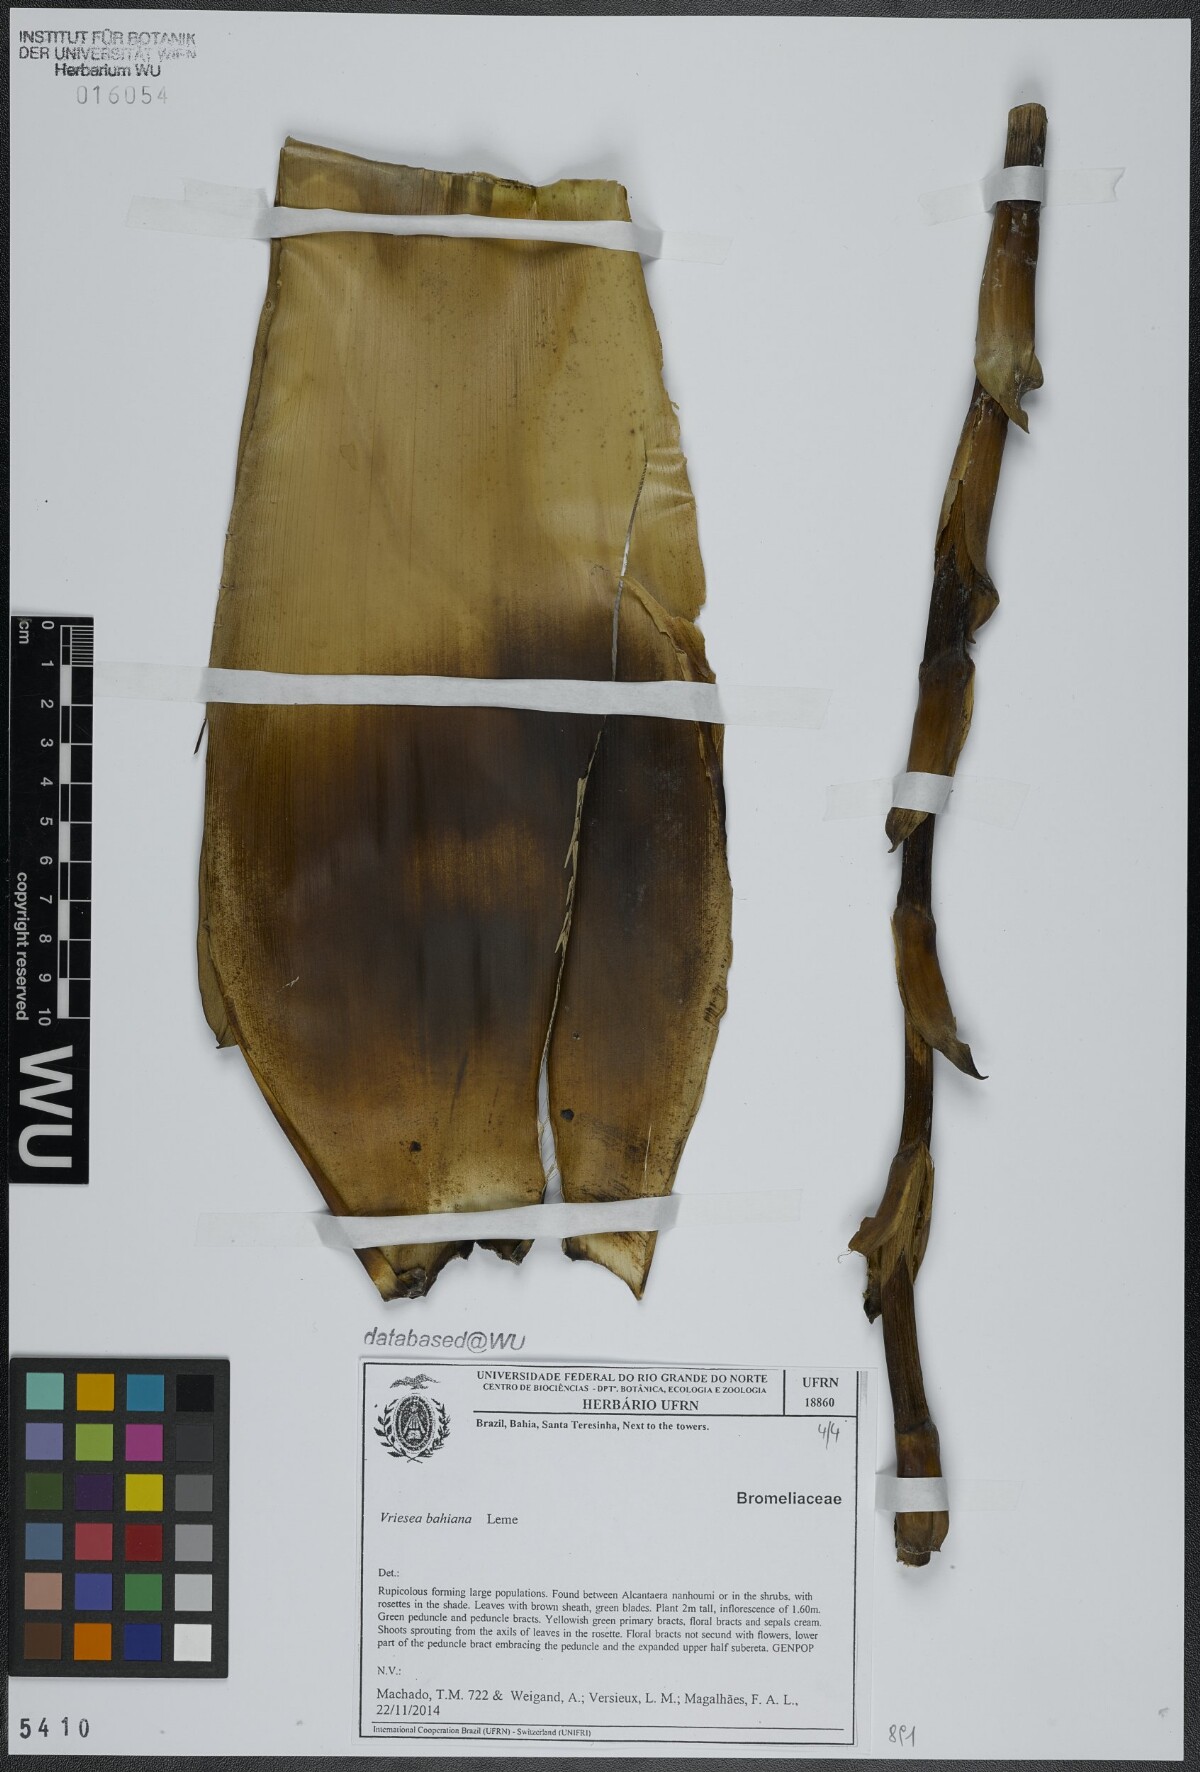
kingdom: Plantae
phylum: Tracheophyta
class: Liliopsida
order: Poales
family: Bromeliaceae
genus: Vriesea
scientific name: Vriesea bahiana
